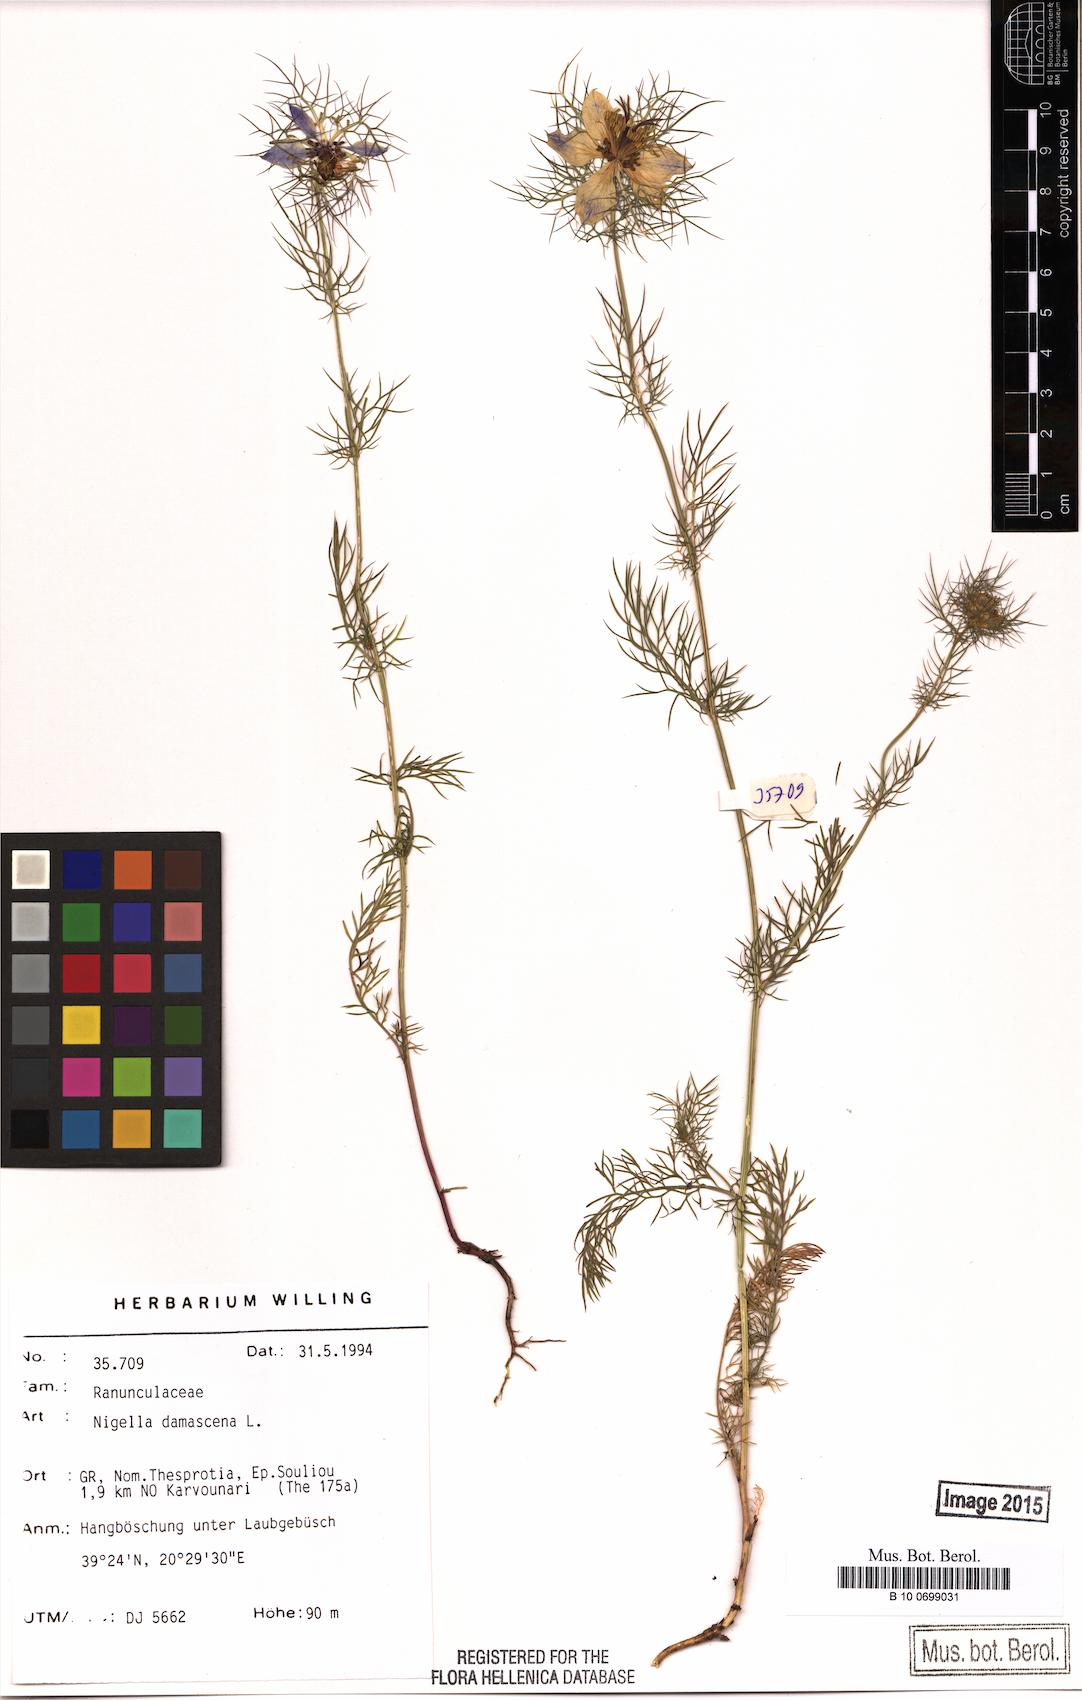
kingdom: Plantae
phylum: Tracheophyta
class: Magnoliopsida
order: Ranunculales
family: Ranunculaceae
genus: Nigella
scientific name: Nigella damascena
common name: Love-in-a-mist
